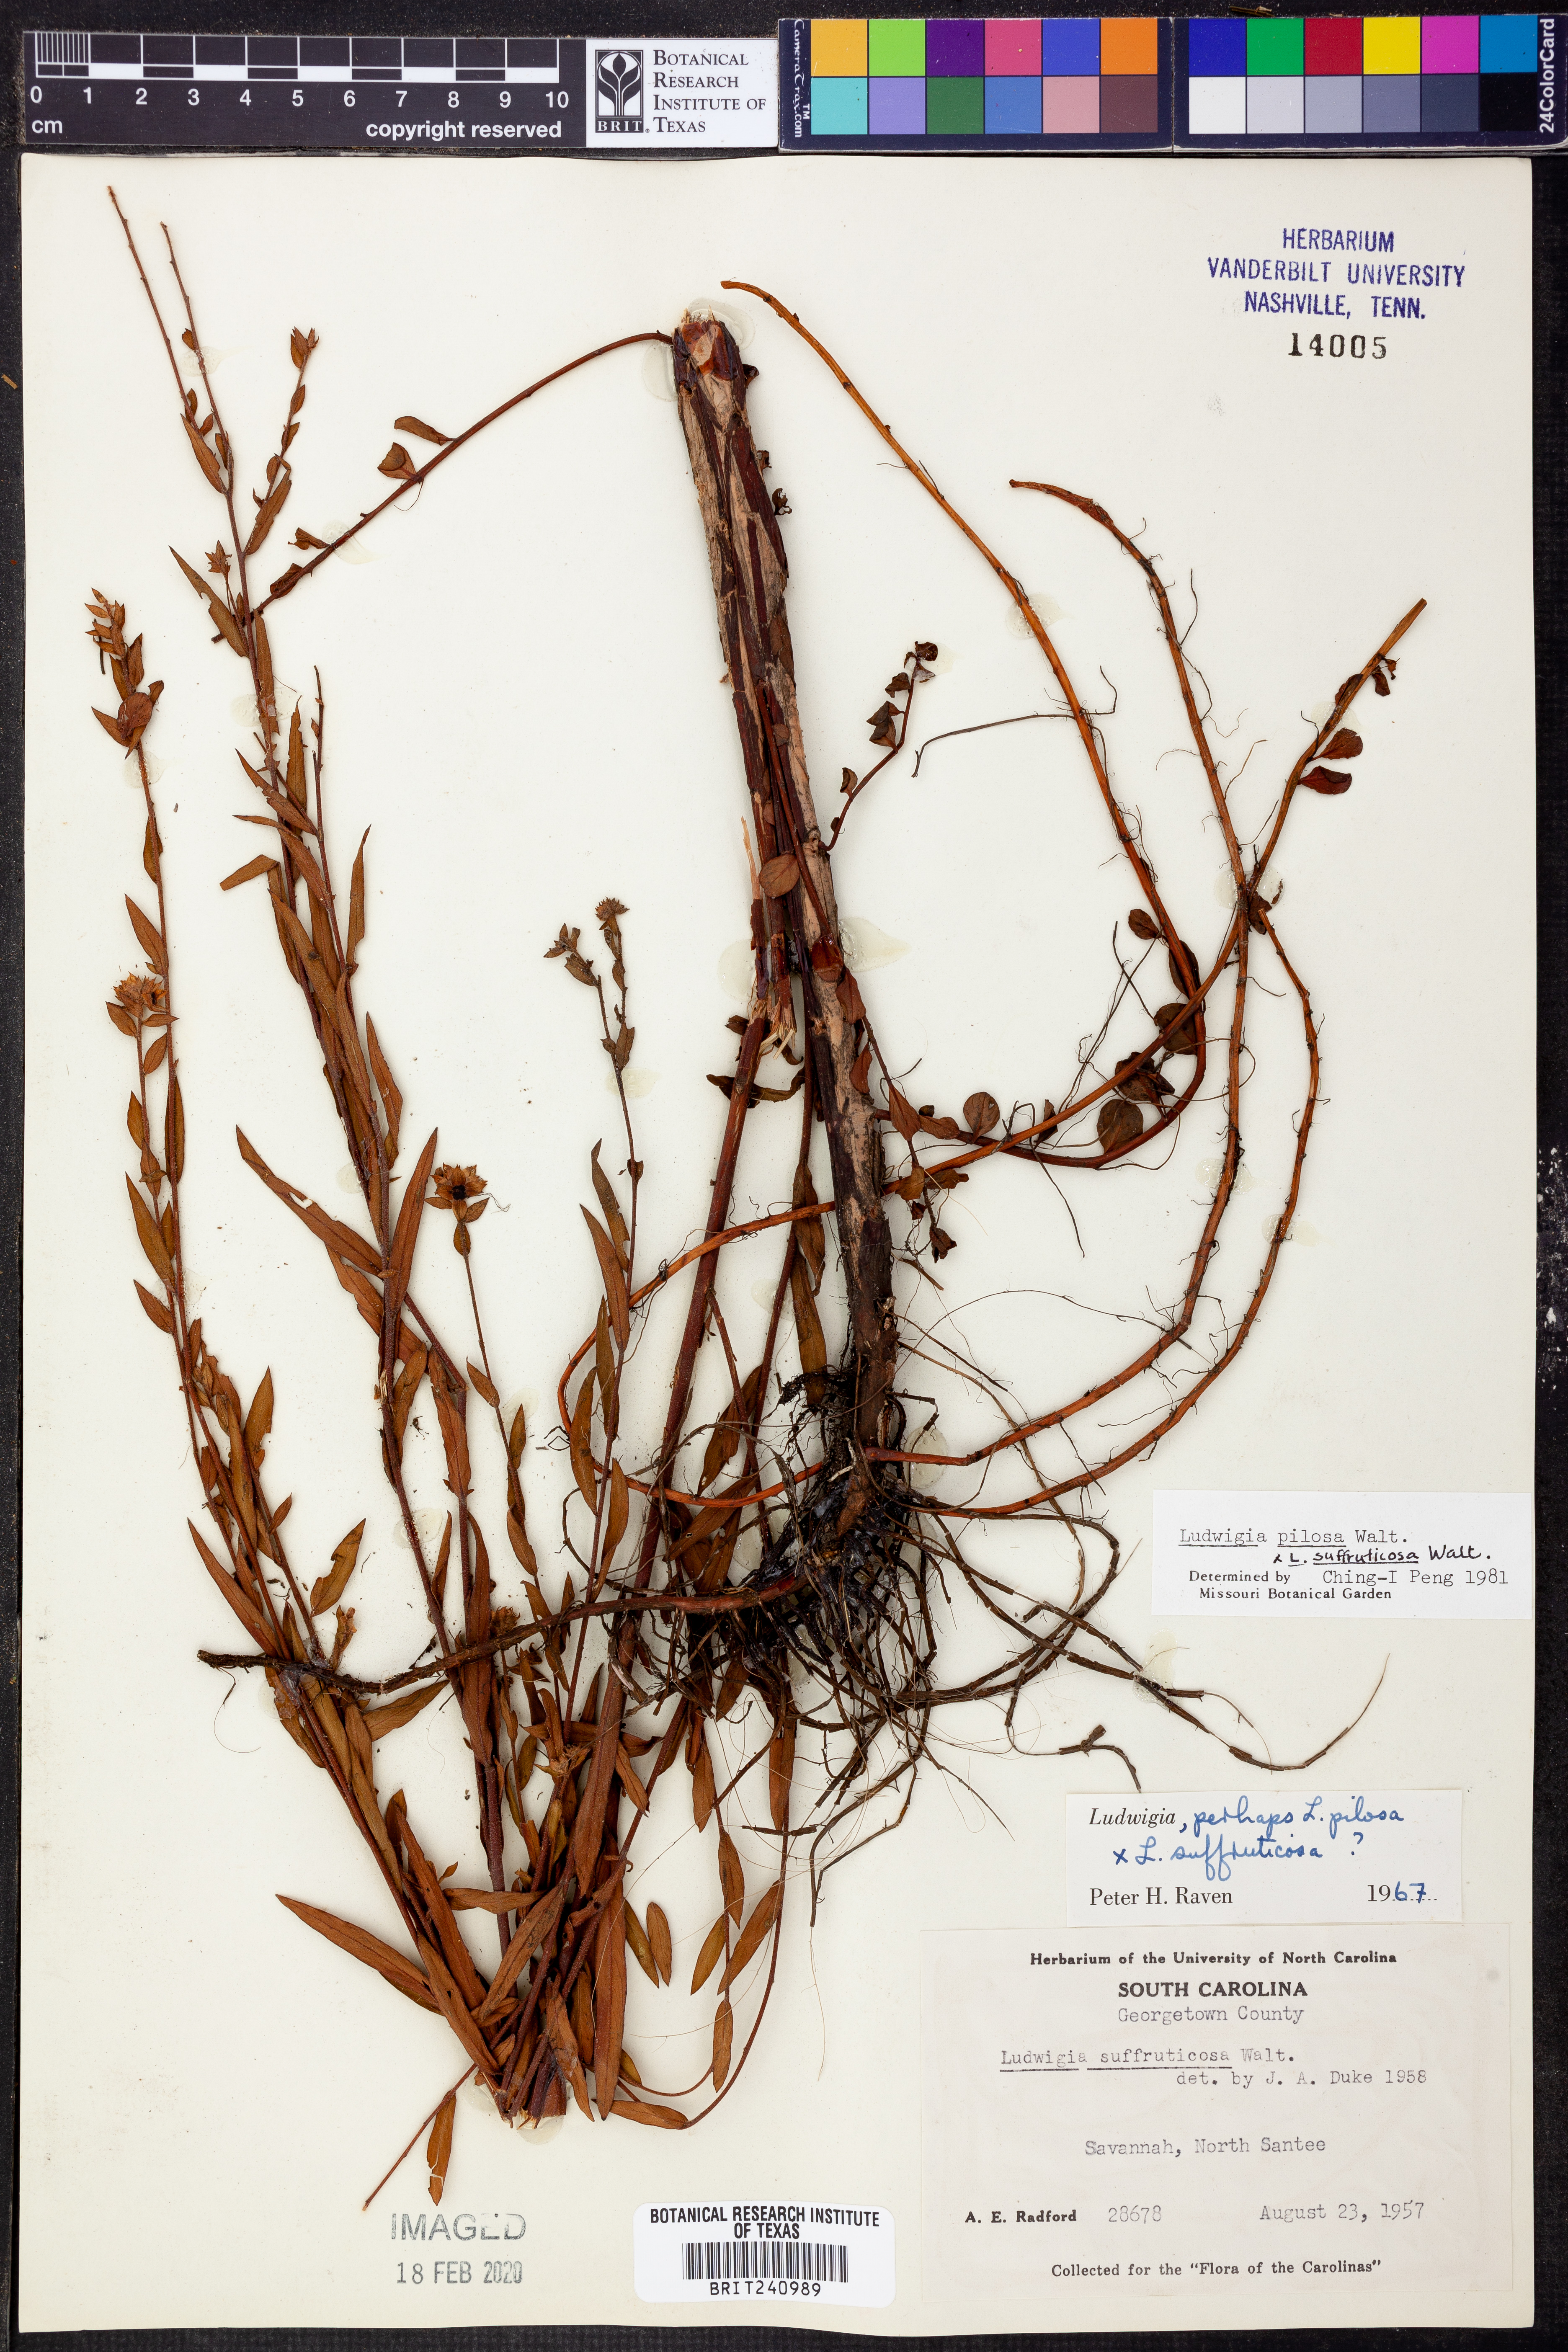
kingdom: Plantae
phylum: Tracheophyta
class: Magnoliopsida
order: Myrtales
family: Onagraceae
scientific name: Onagraceae
